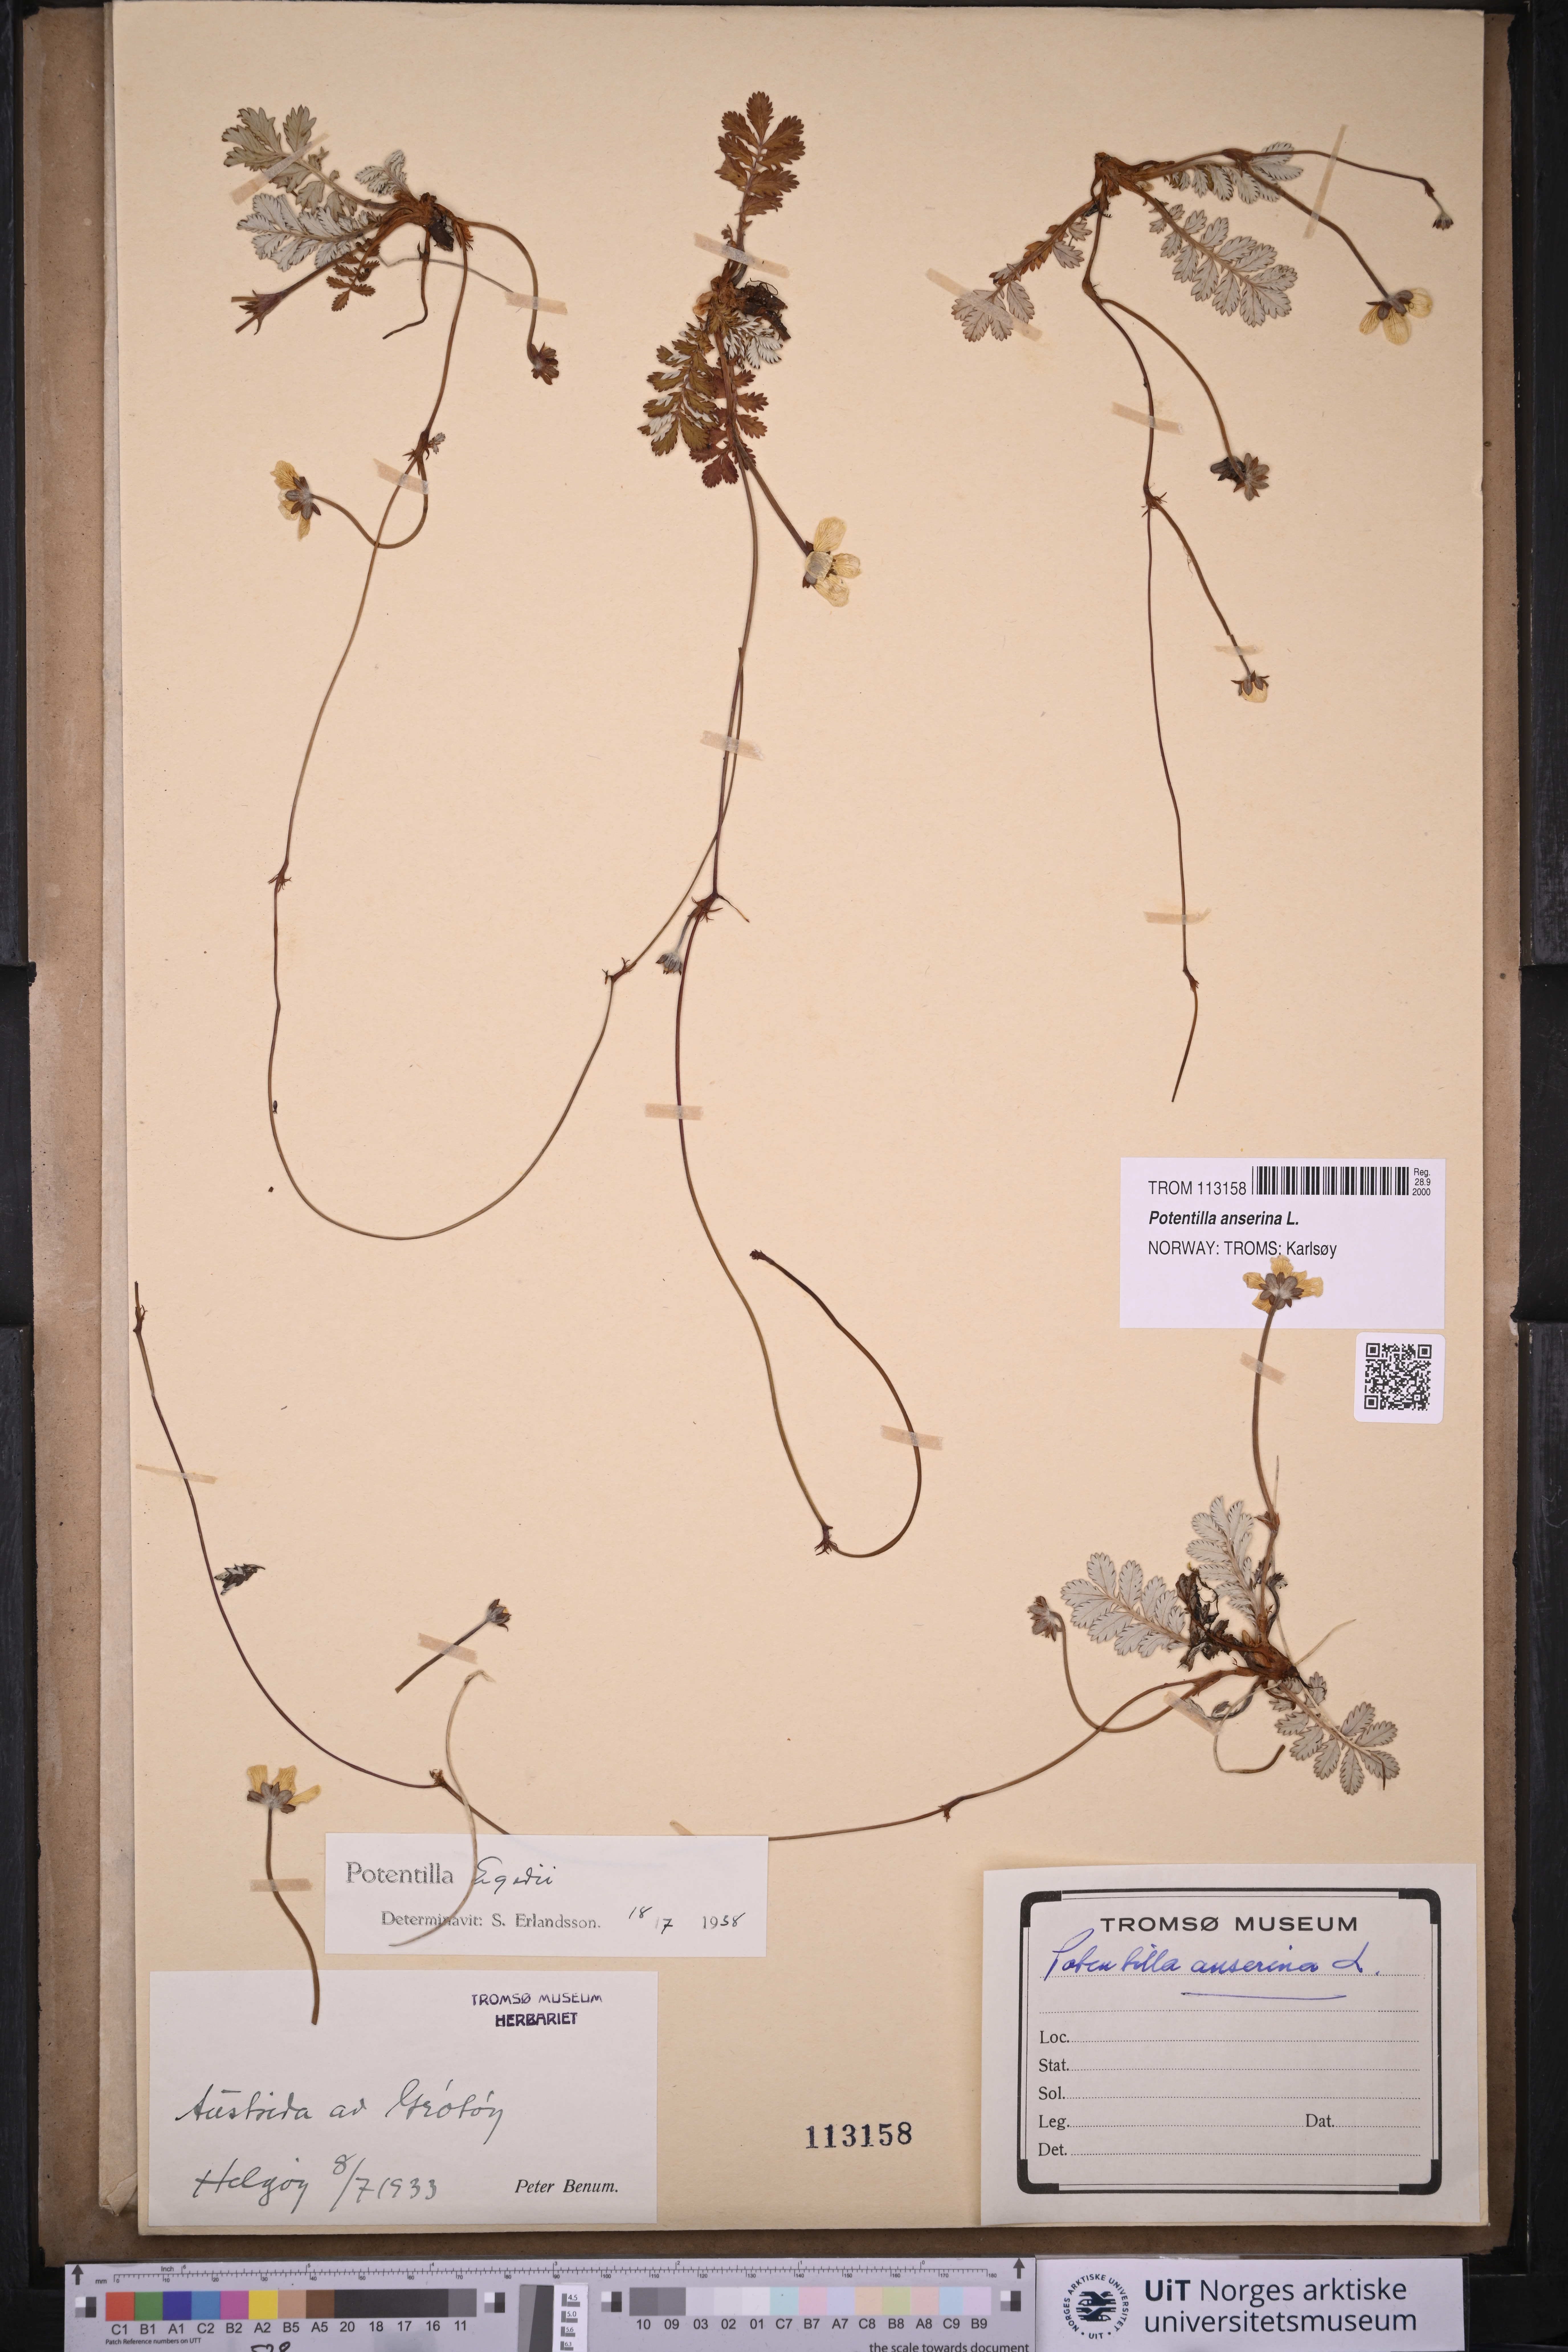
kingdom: Plantae
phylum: Tracheophyta
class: Magnoliopsida
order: Rosales
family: Rosaceae
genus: Argentina
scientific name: Argentina anserina
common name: Common silverweed
